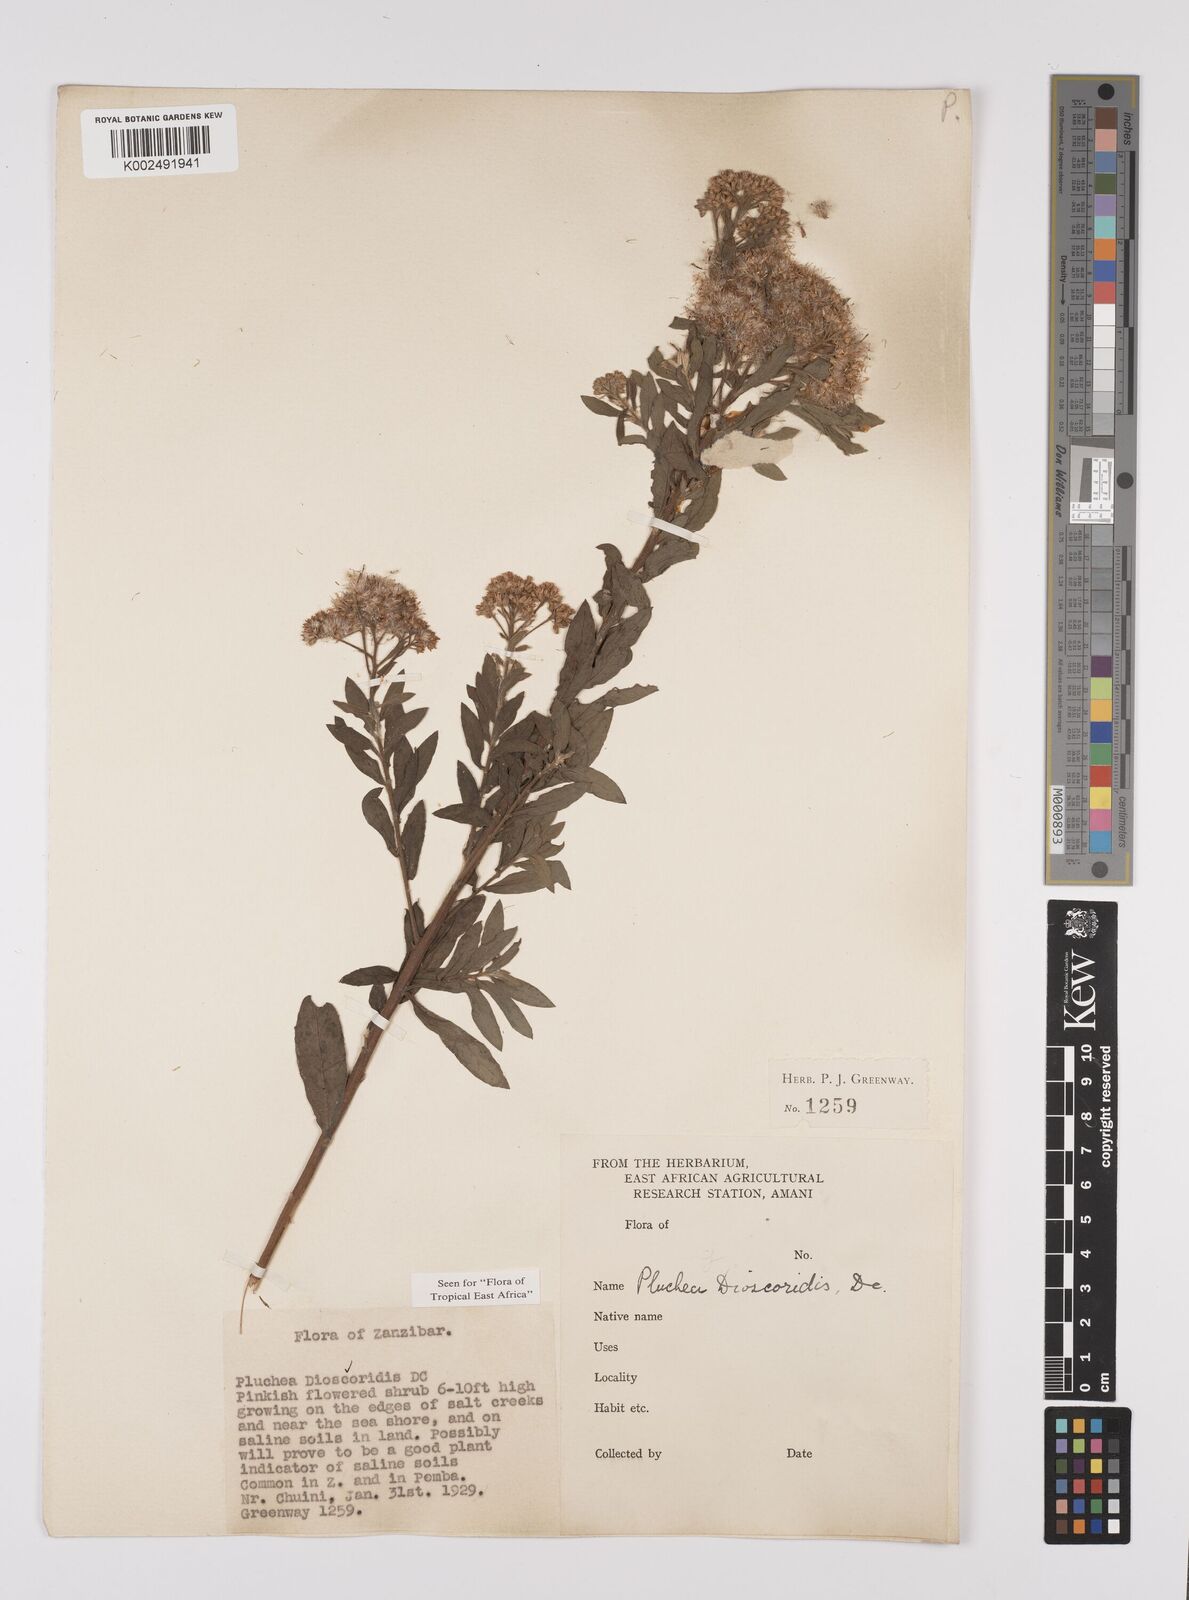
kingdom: Plantae
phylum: Tracheophyta
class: Magnoliopsida
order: Asterales
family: Asteraceae
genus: Pluchea
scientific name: Pluchea dioscoridis
